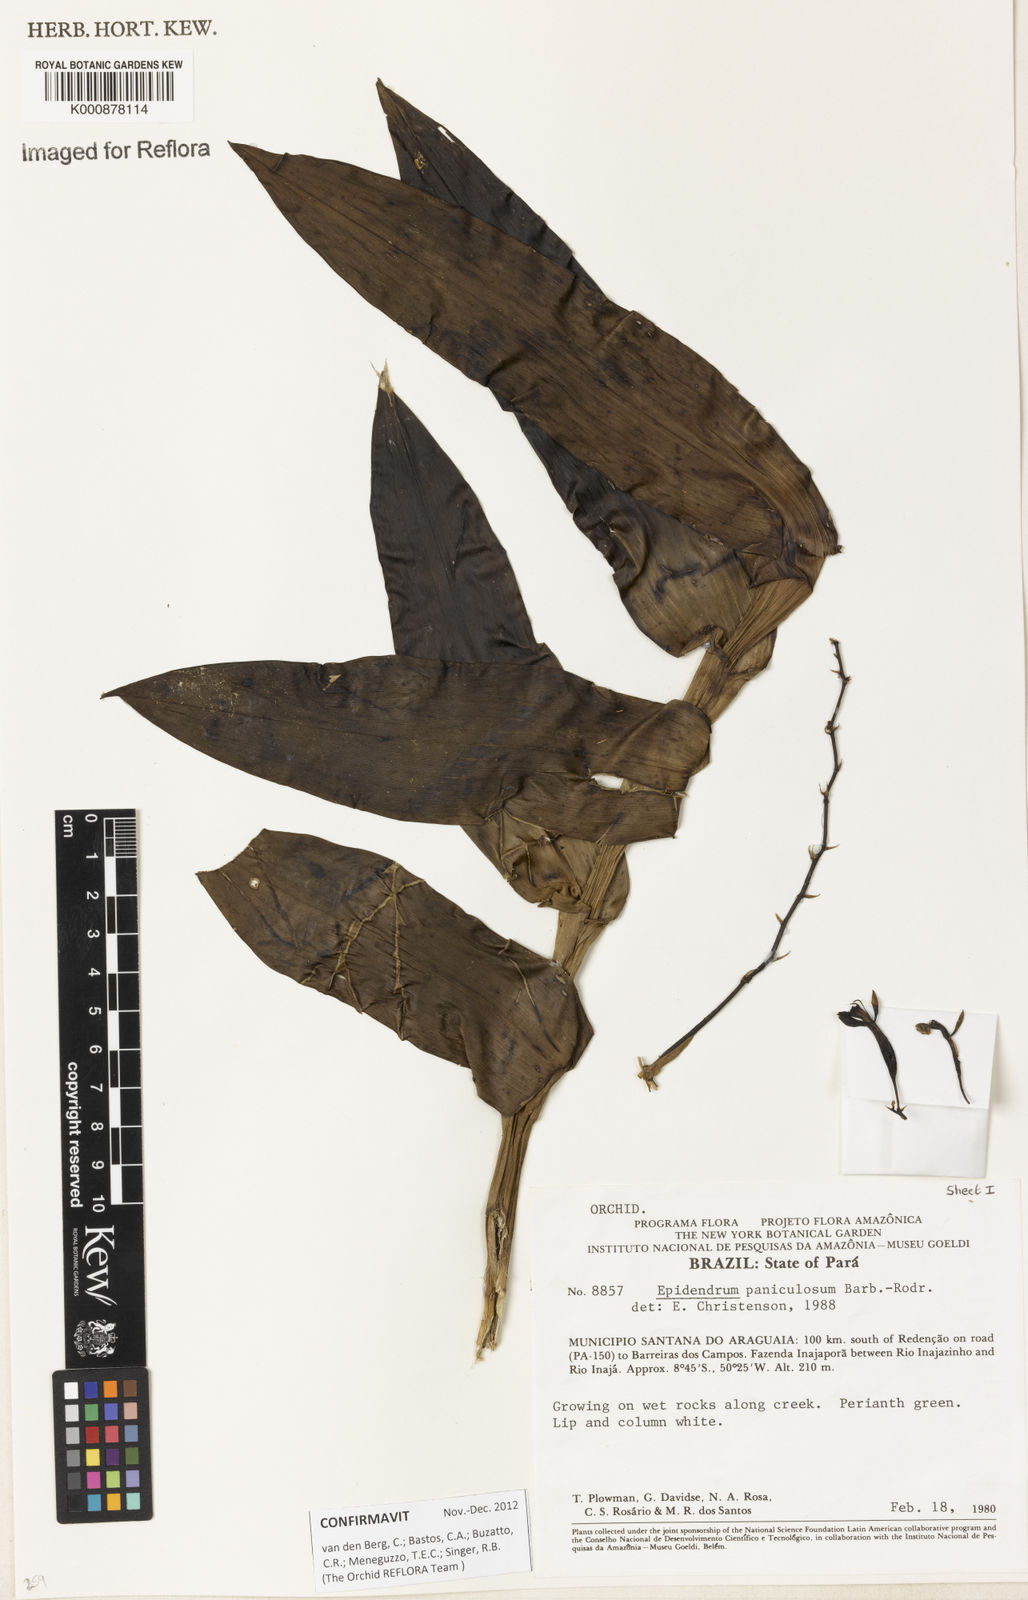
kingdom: Plantae
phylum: Tracheophyta
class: Liliopsida
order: Asparagales
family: Orchidaceae
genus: Epidendrum
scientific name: Epidendrum paniculosum
